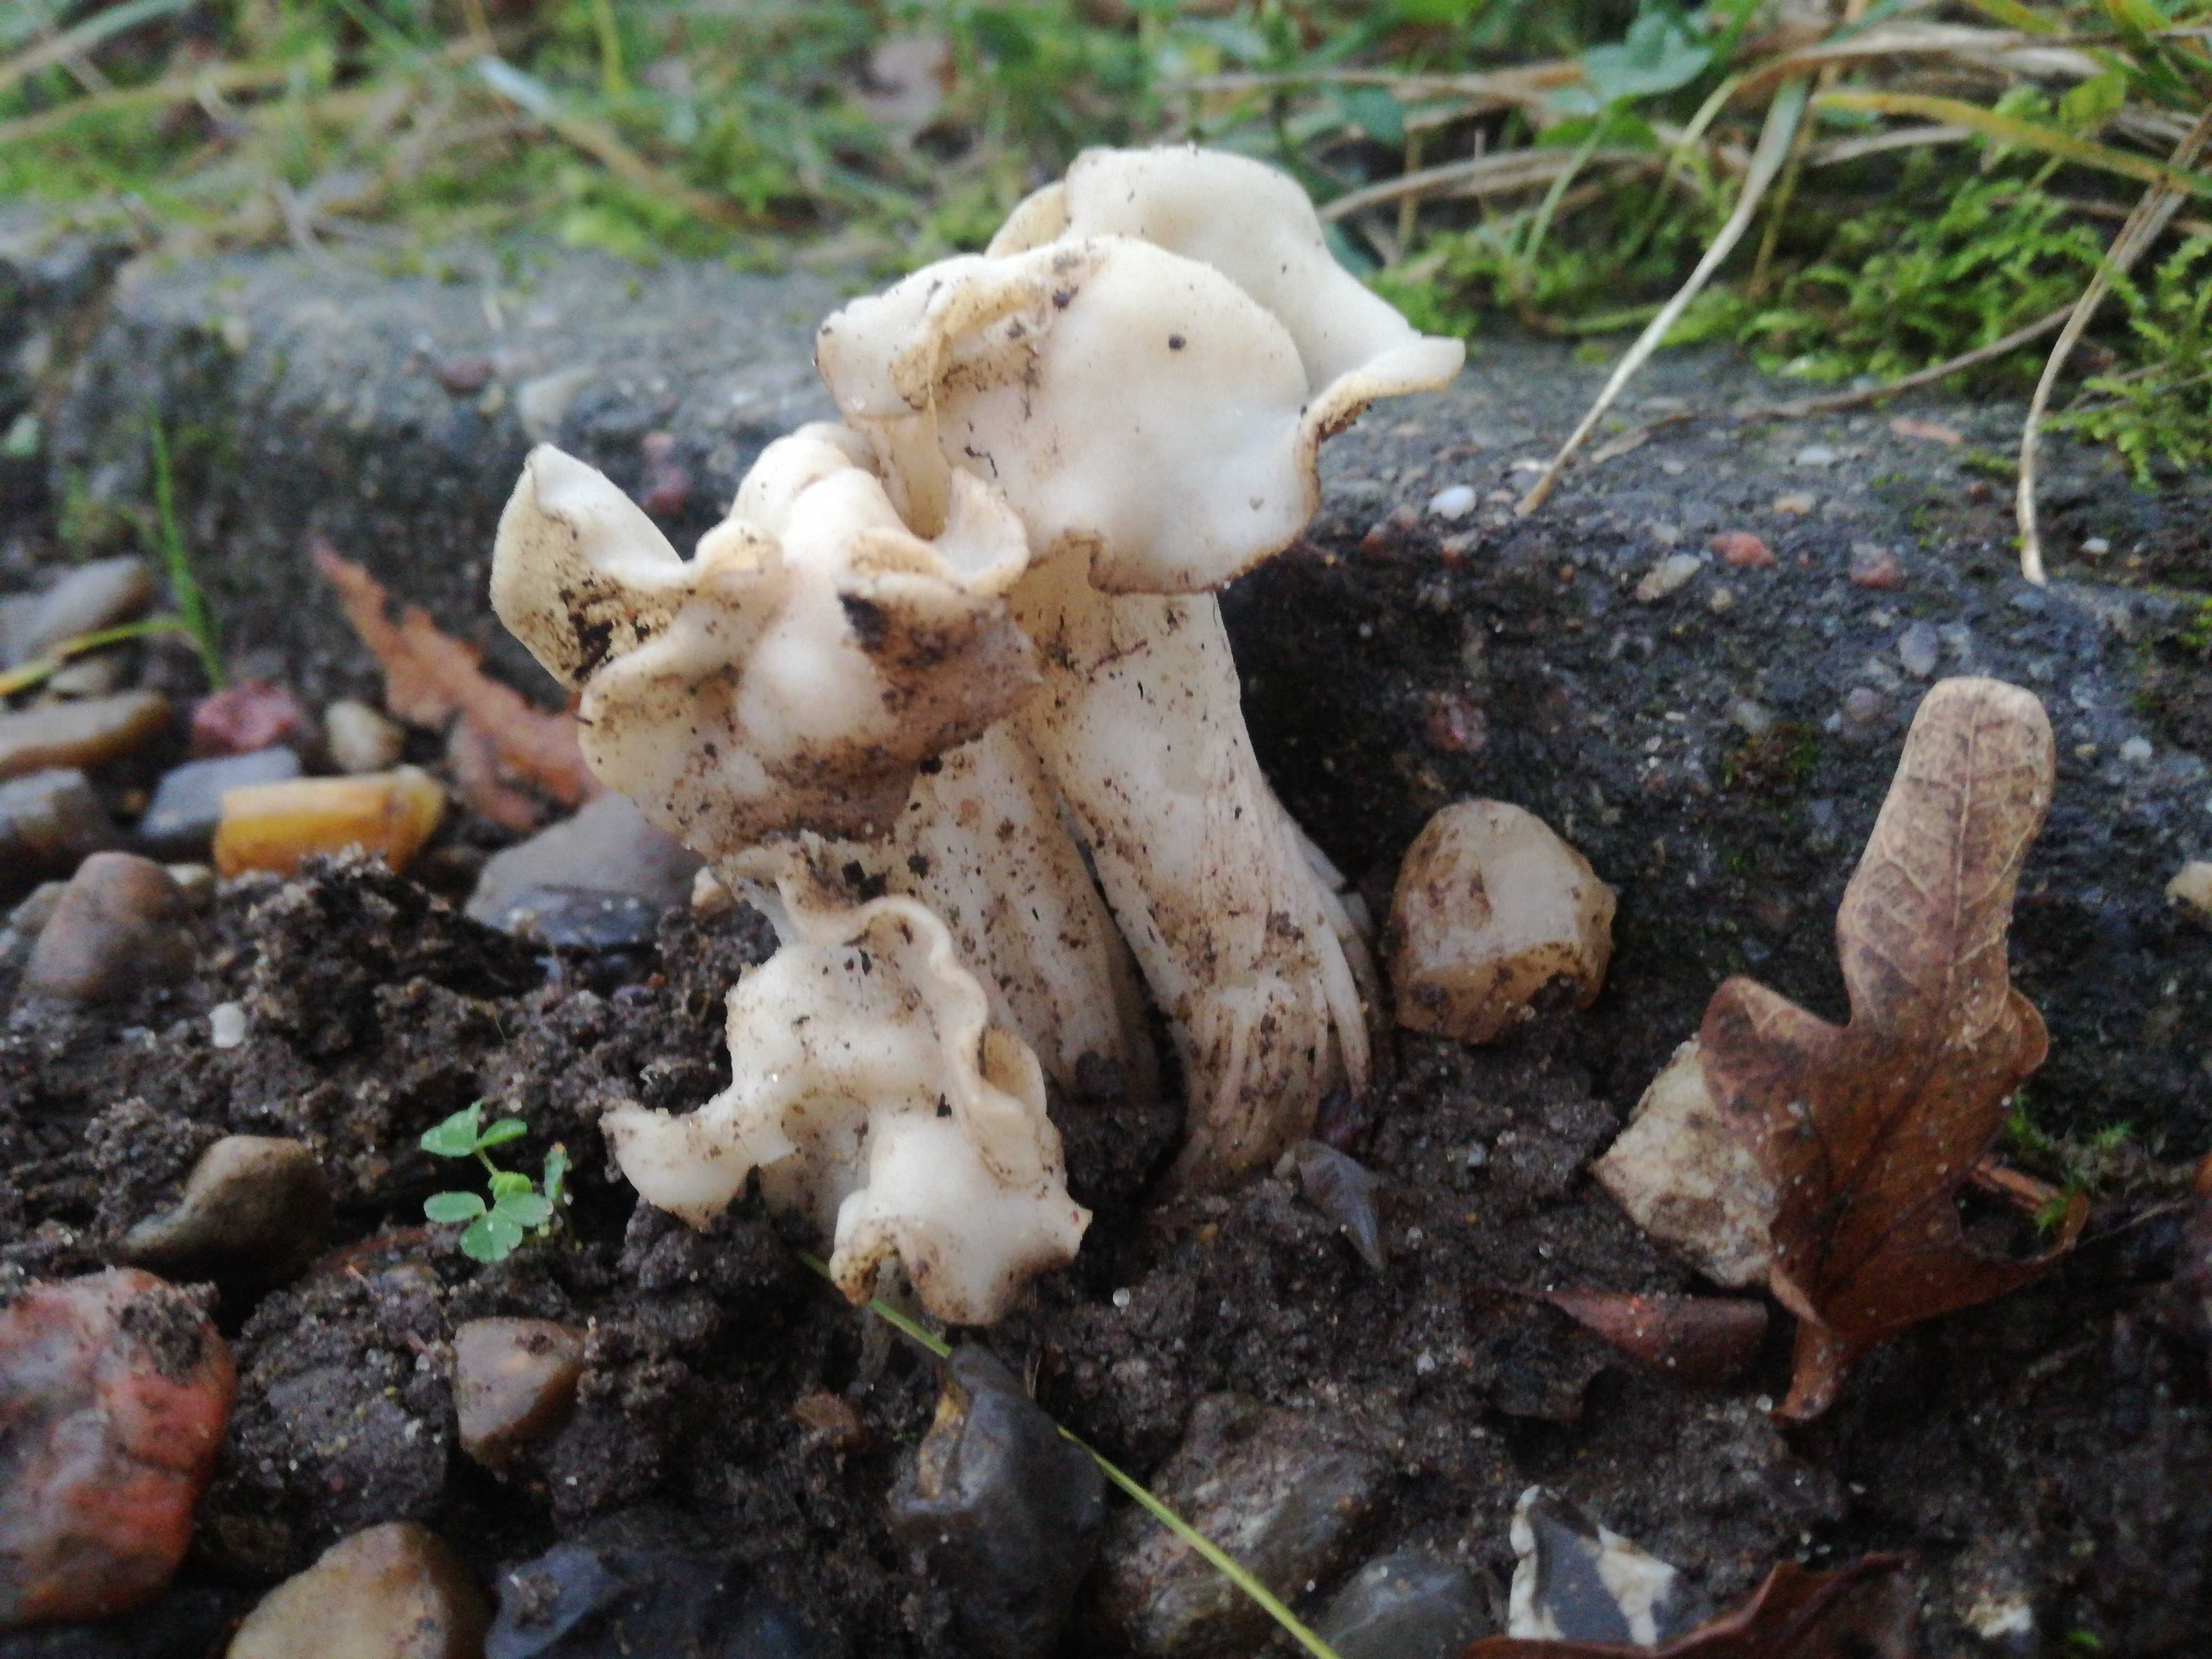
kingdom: Fungi
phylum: Ascomycota
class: Pezizomycetes
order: Pezizales
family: Helvellaceae
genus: Helvella
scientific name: Helvella crispa
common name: kruset foldhat
